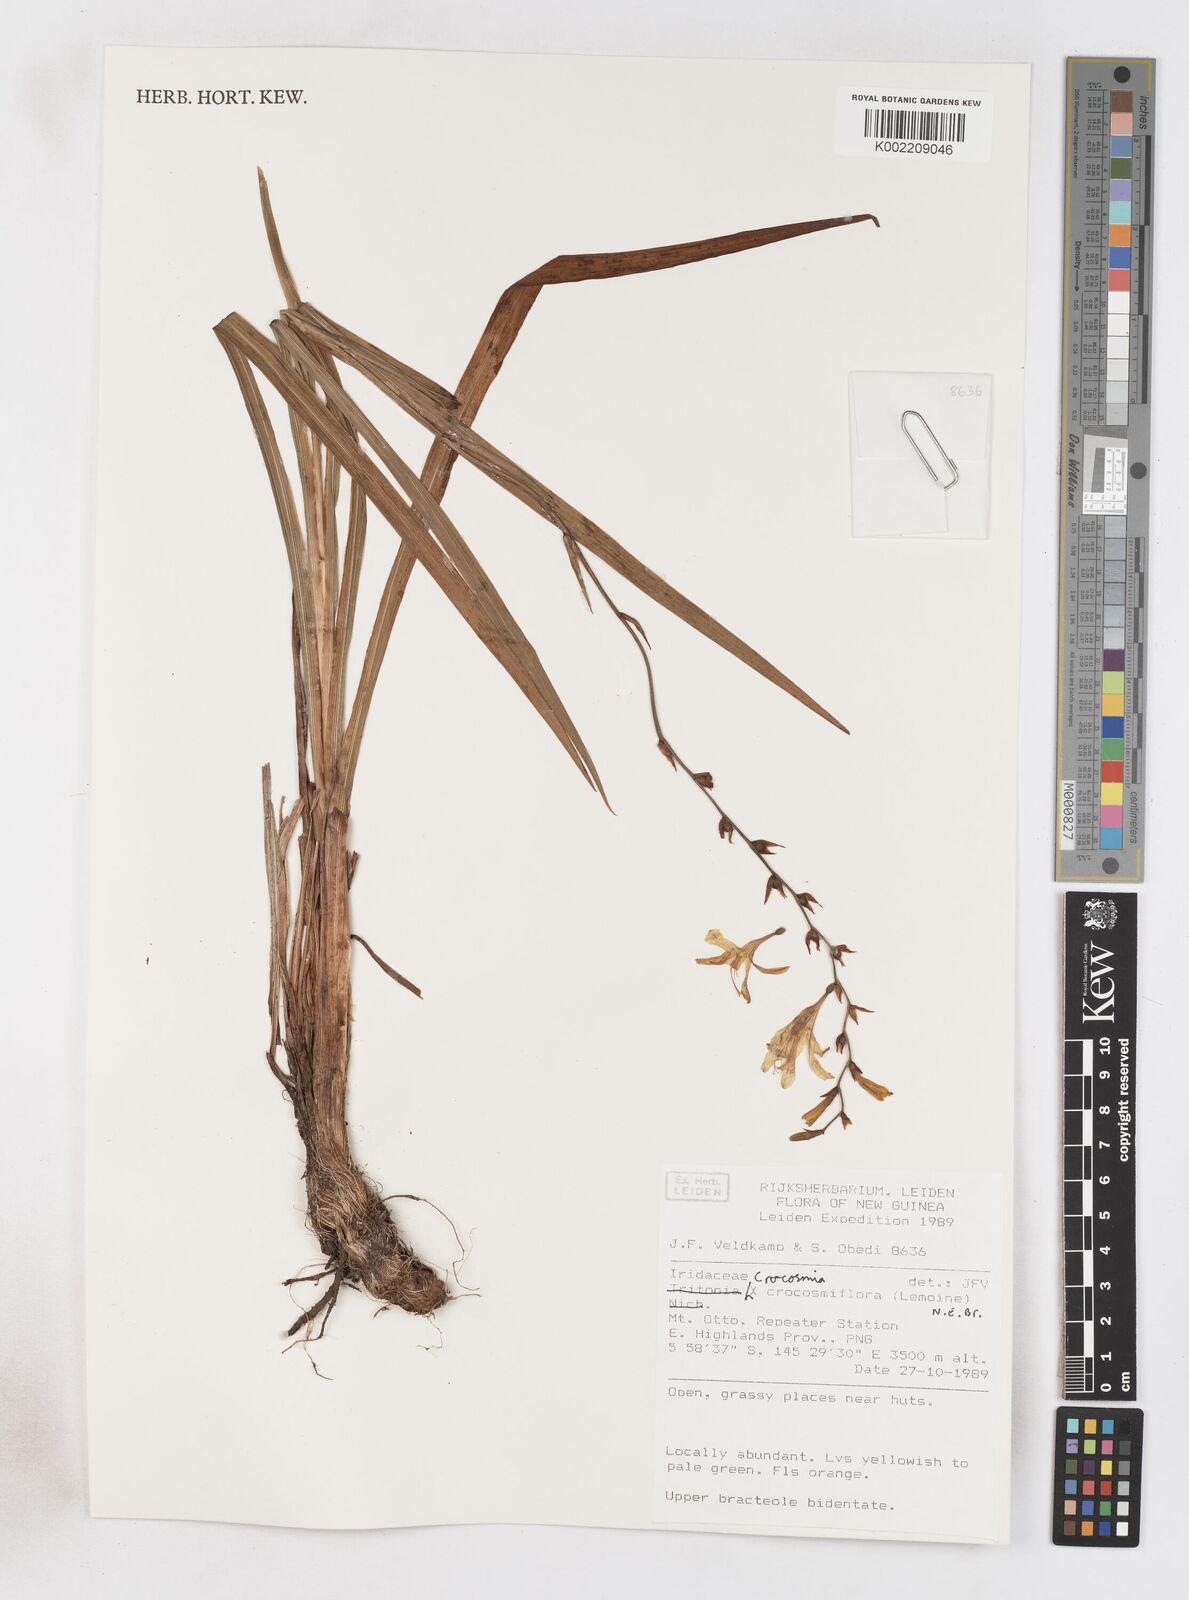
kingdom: Plantae
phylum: Tracheophyta
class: Liliopsida
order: Asparagales
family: Iridaceae
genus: Crocosmia
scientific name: Crocosmia crocosmiiflora
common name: Montbretia
